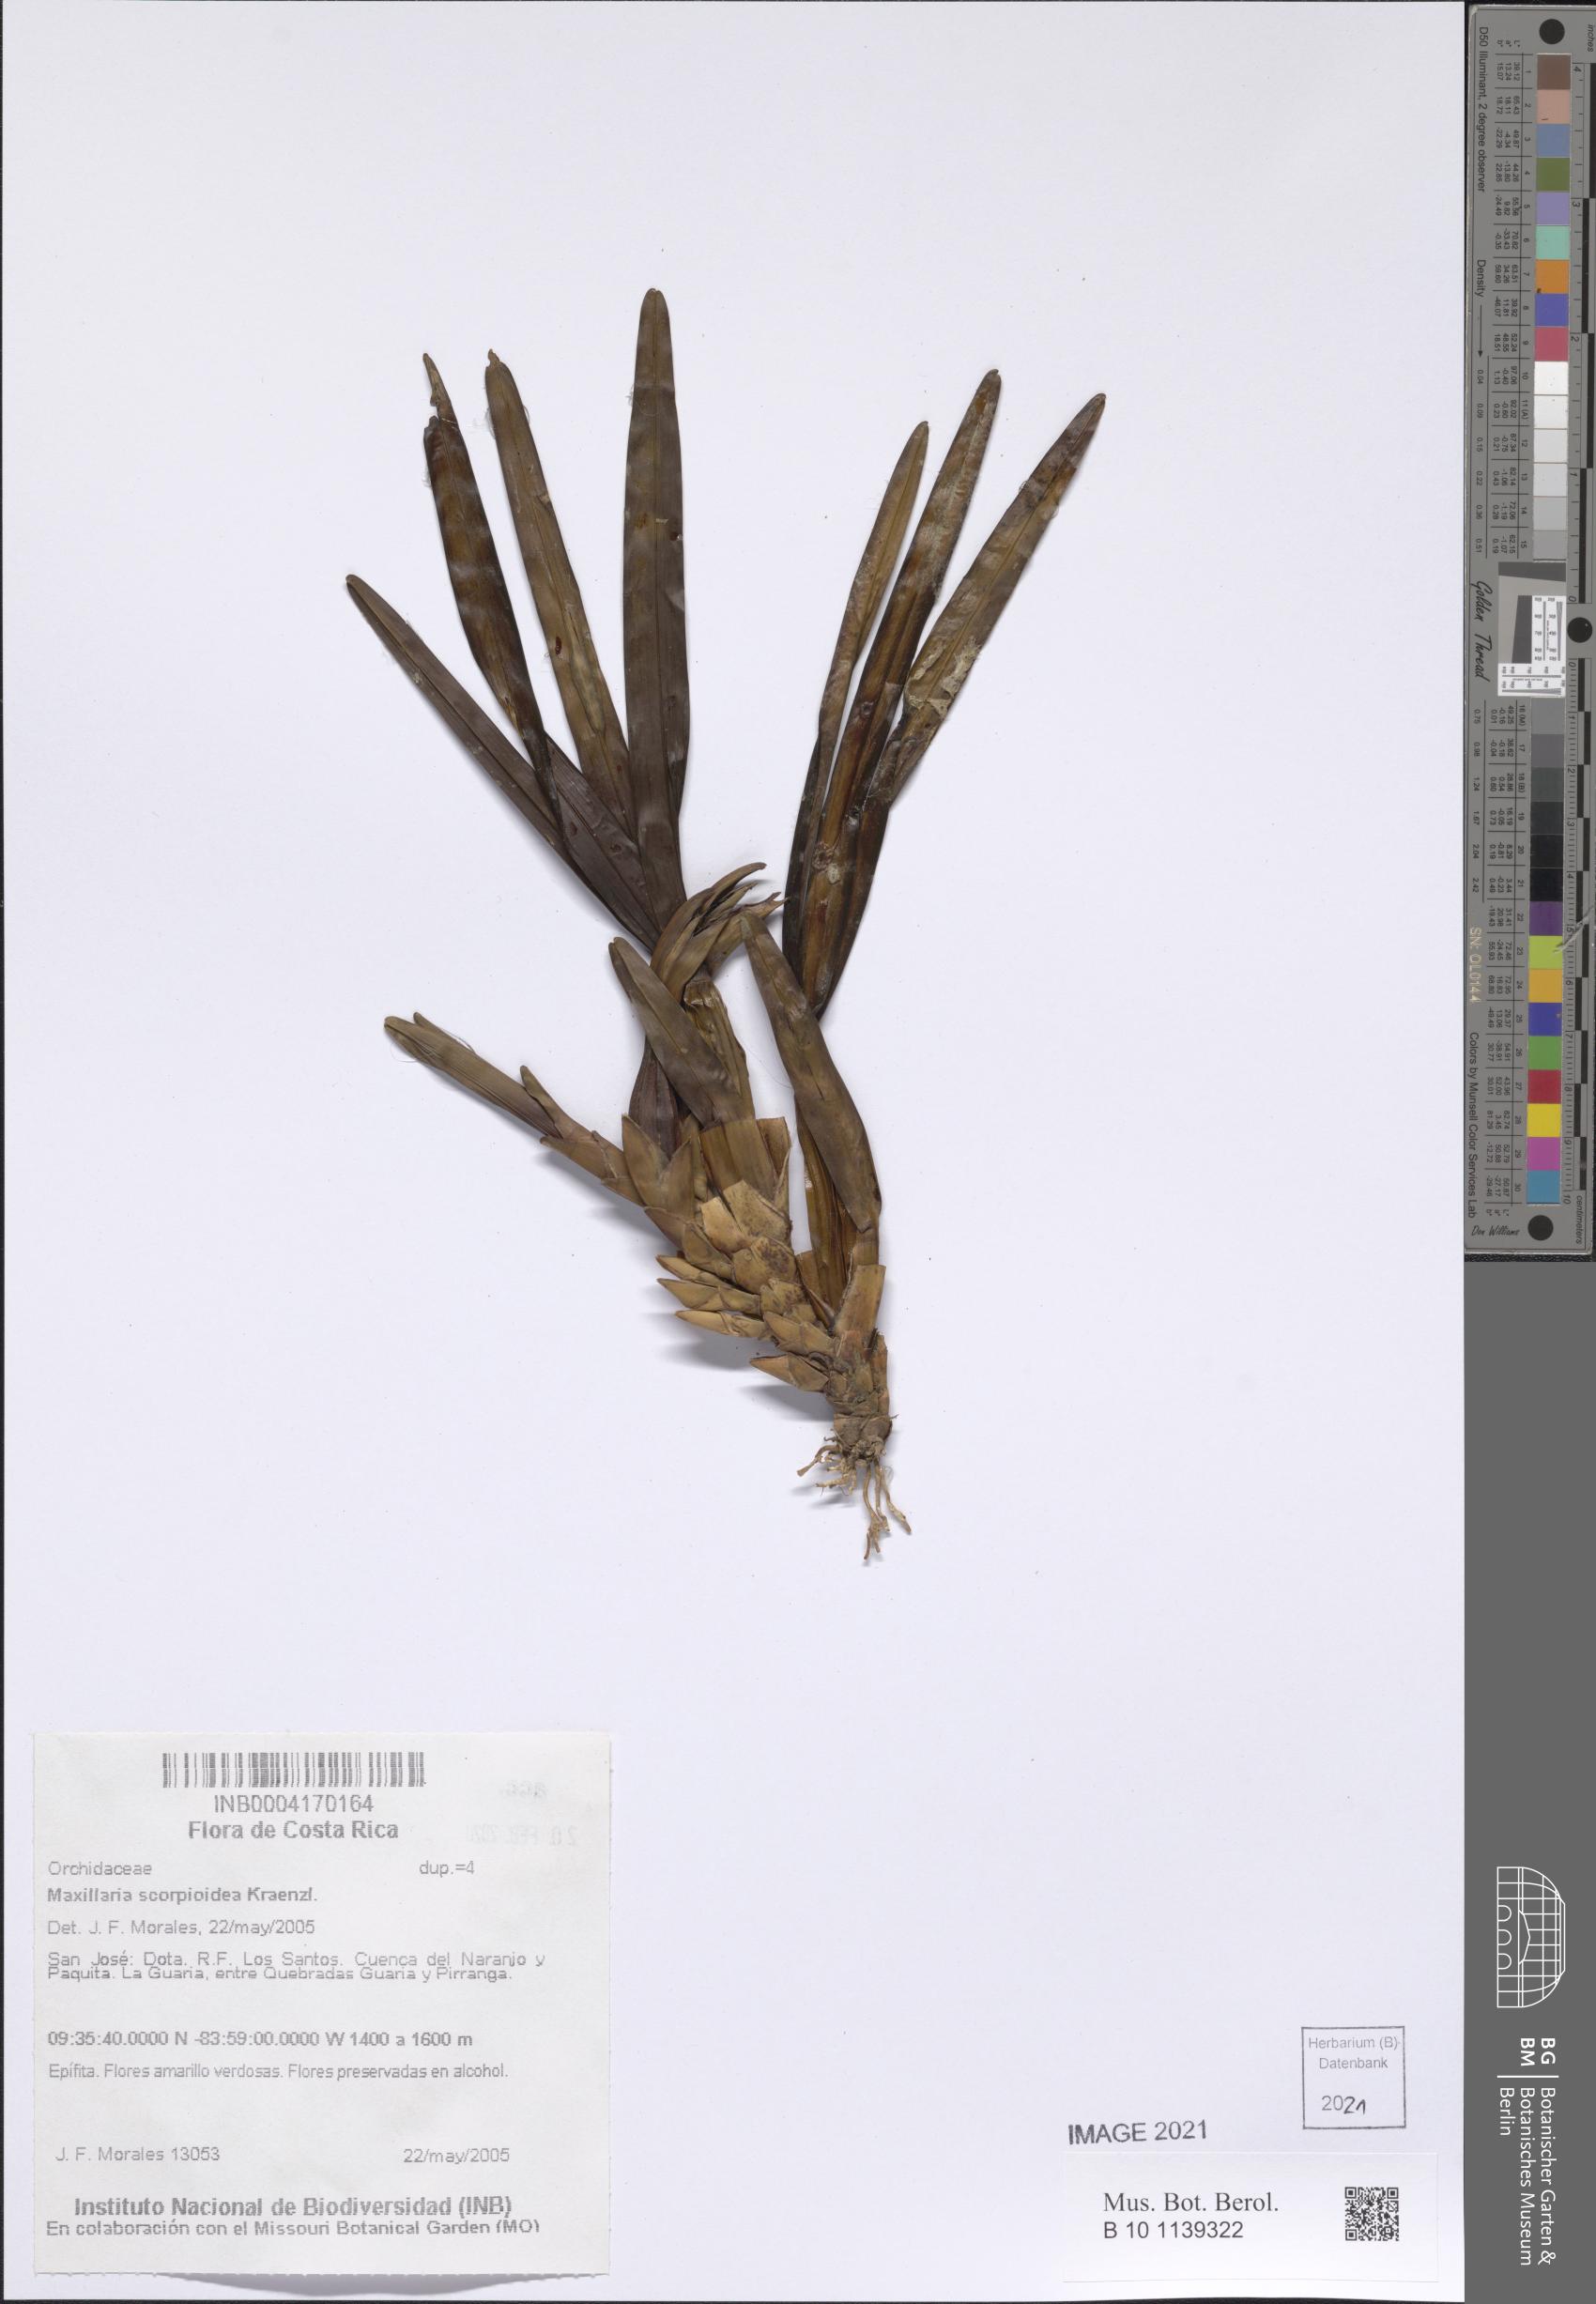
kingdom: Plantae
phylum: Tracheophyta
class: Liliopsida
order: Asparagales
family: Orchidaceae
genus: Maxillaria
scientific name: Maxillaria scorpioidea
